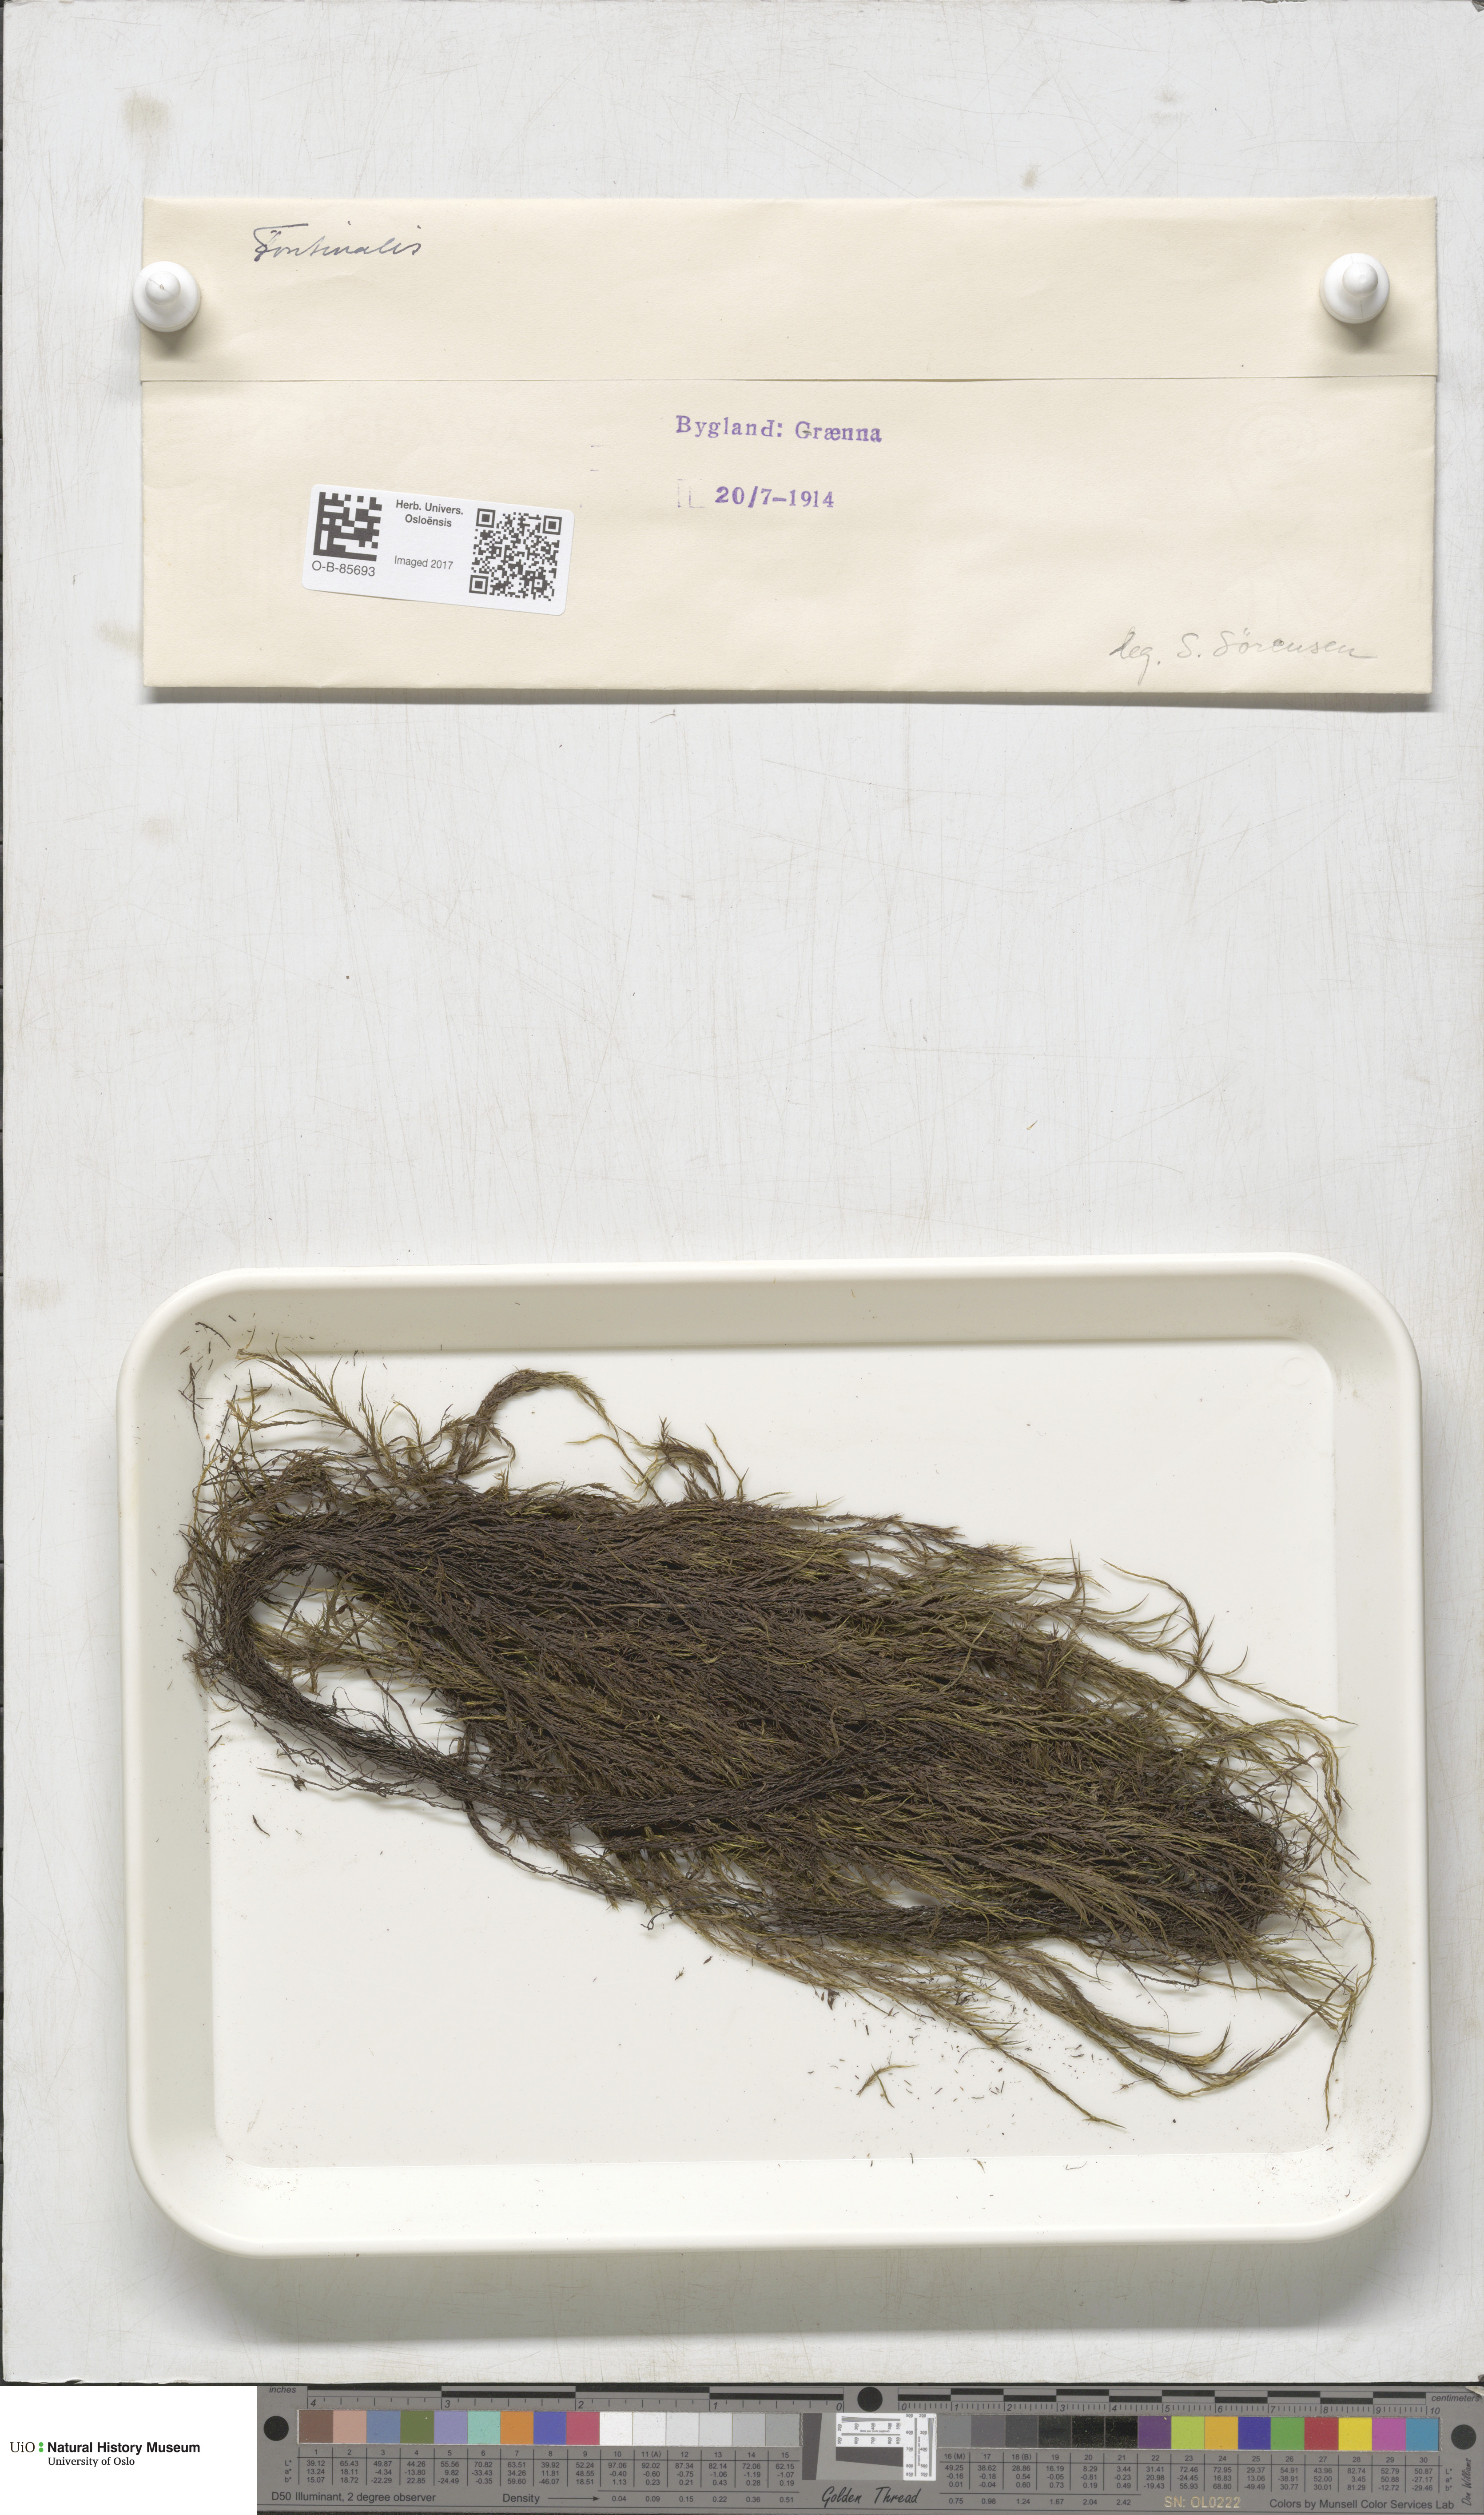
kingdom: Plantae
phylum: Bryophyta
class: Bryopsida
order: Hypnales
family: Fontinalaceae
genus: Fontinalis
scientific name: Fontinalis
